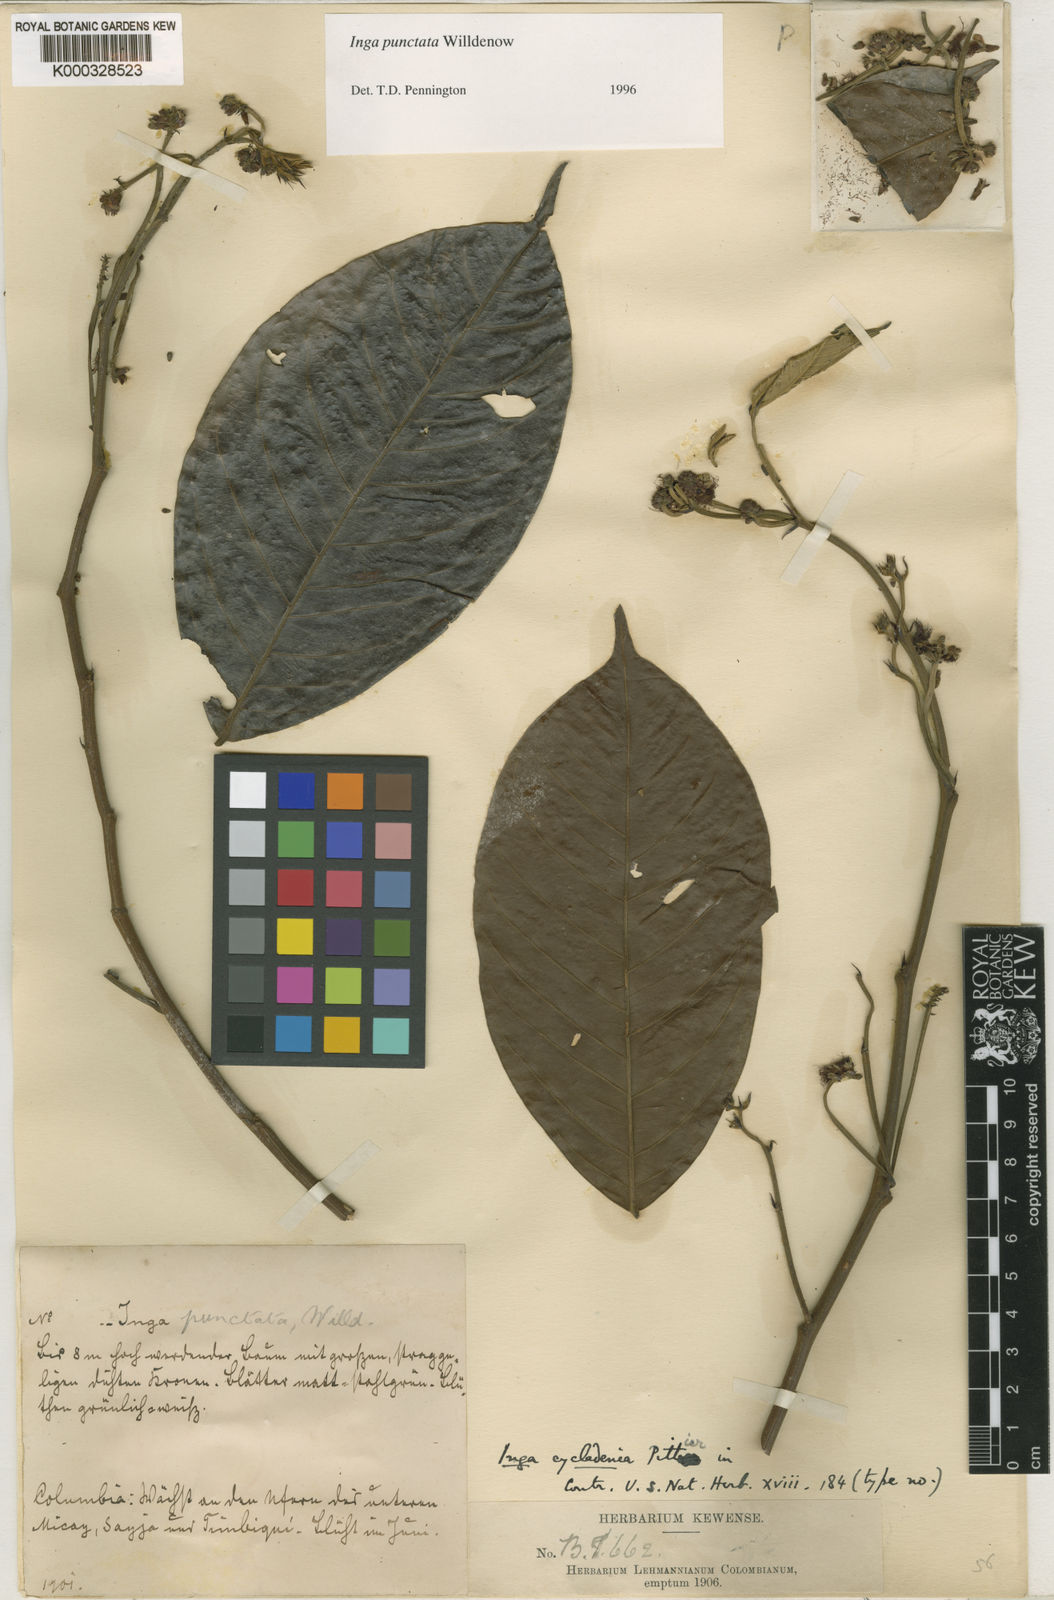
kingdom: Plantae
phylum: Tracheophyta
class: Magnoliopsida
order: Fabales
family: Fabaceae
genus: Inga
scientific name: Inga punctata
